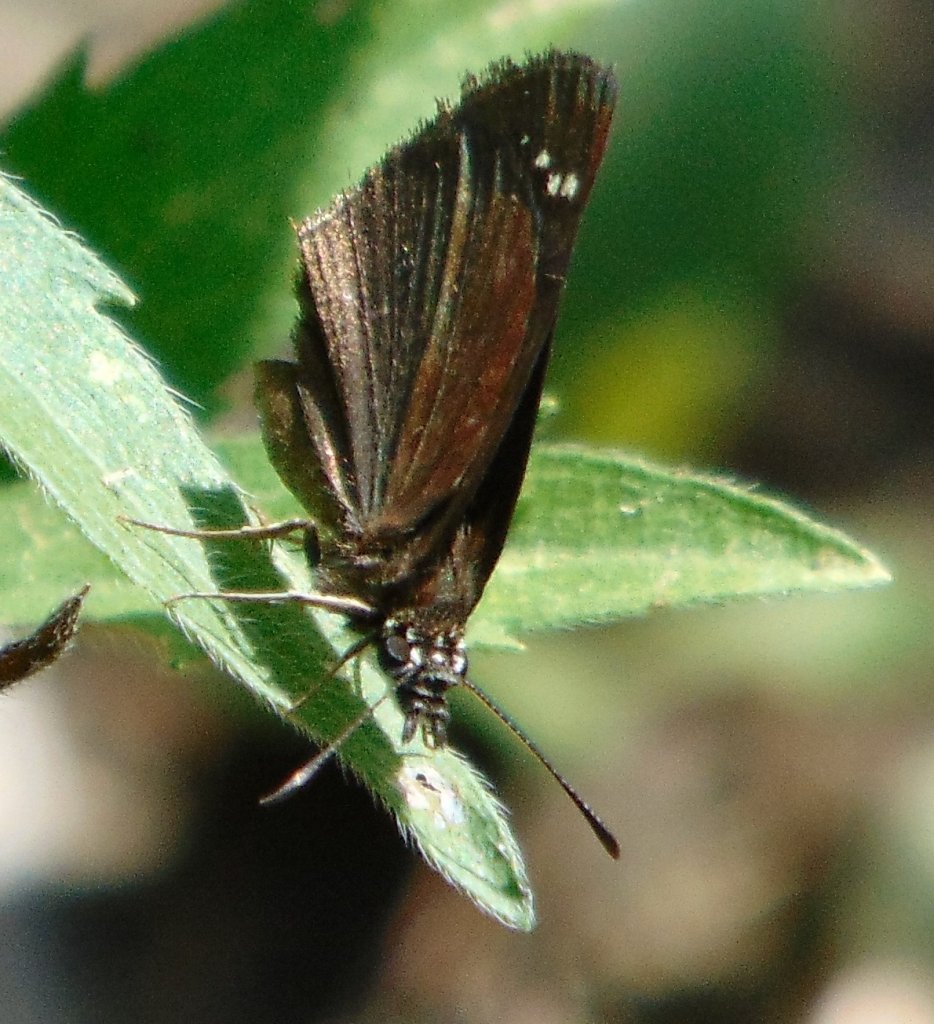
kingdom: Animalia
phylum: Arthropoda
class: Insecta
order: Lepidoptera
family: Hesperiidae
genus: Pholisora
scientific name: Pholisora catullus
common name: Common Sootywing
